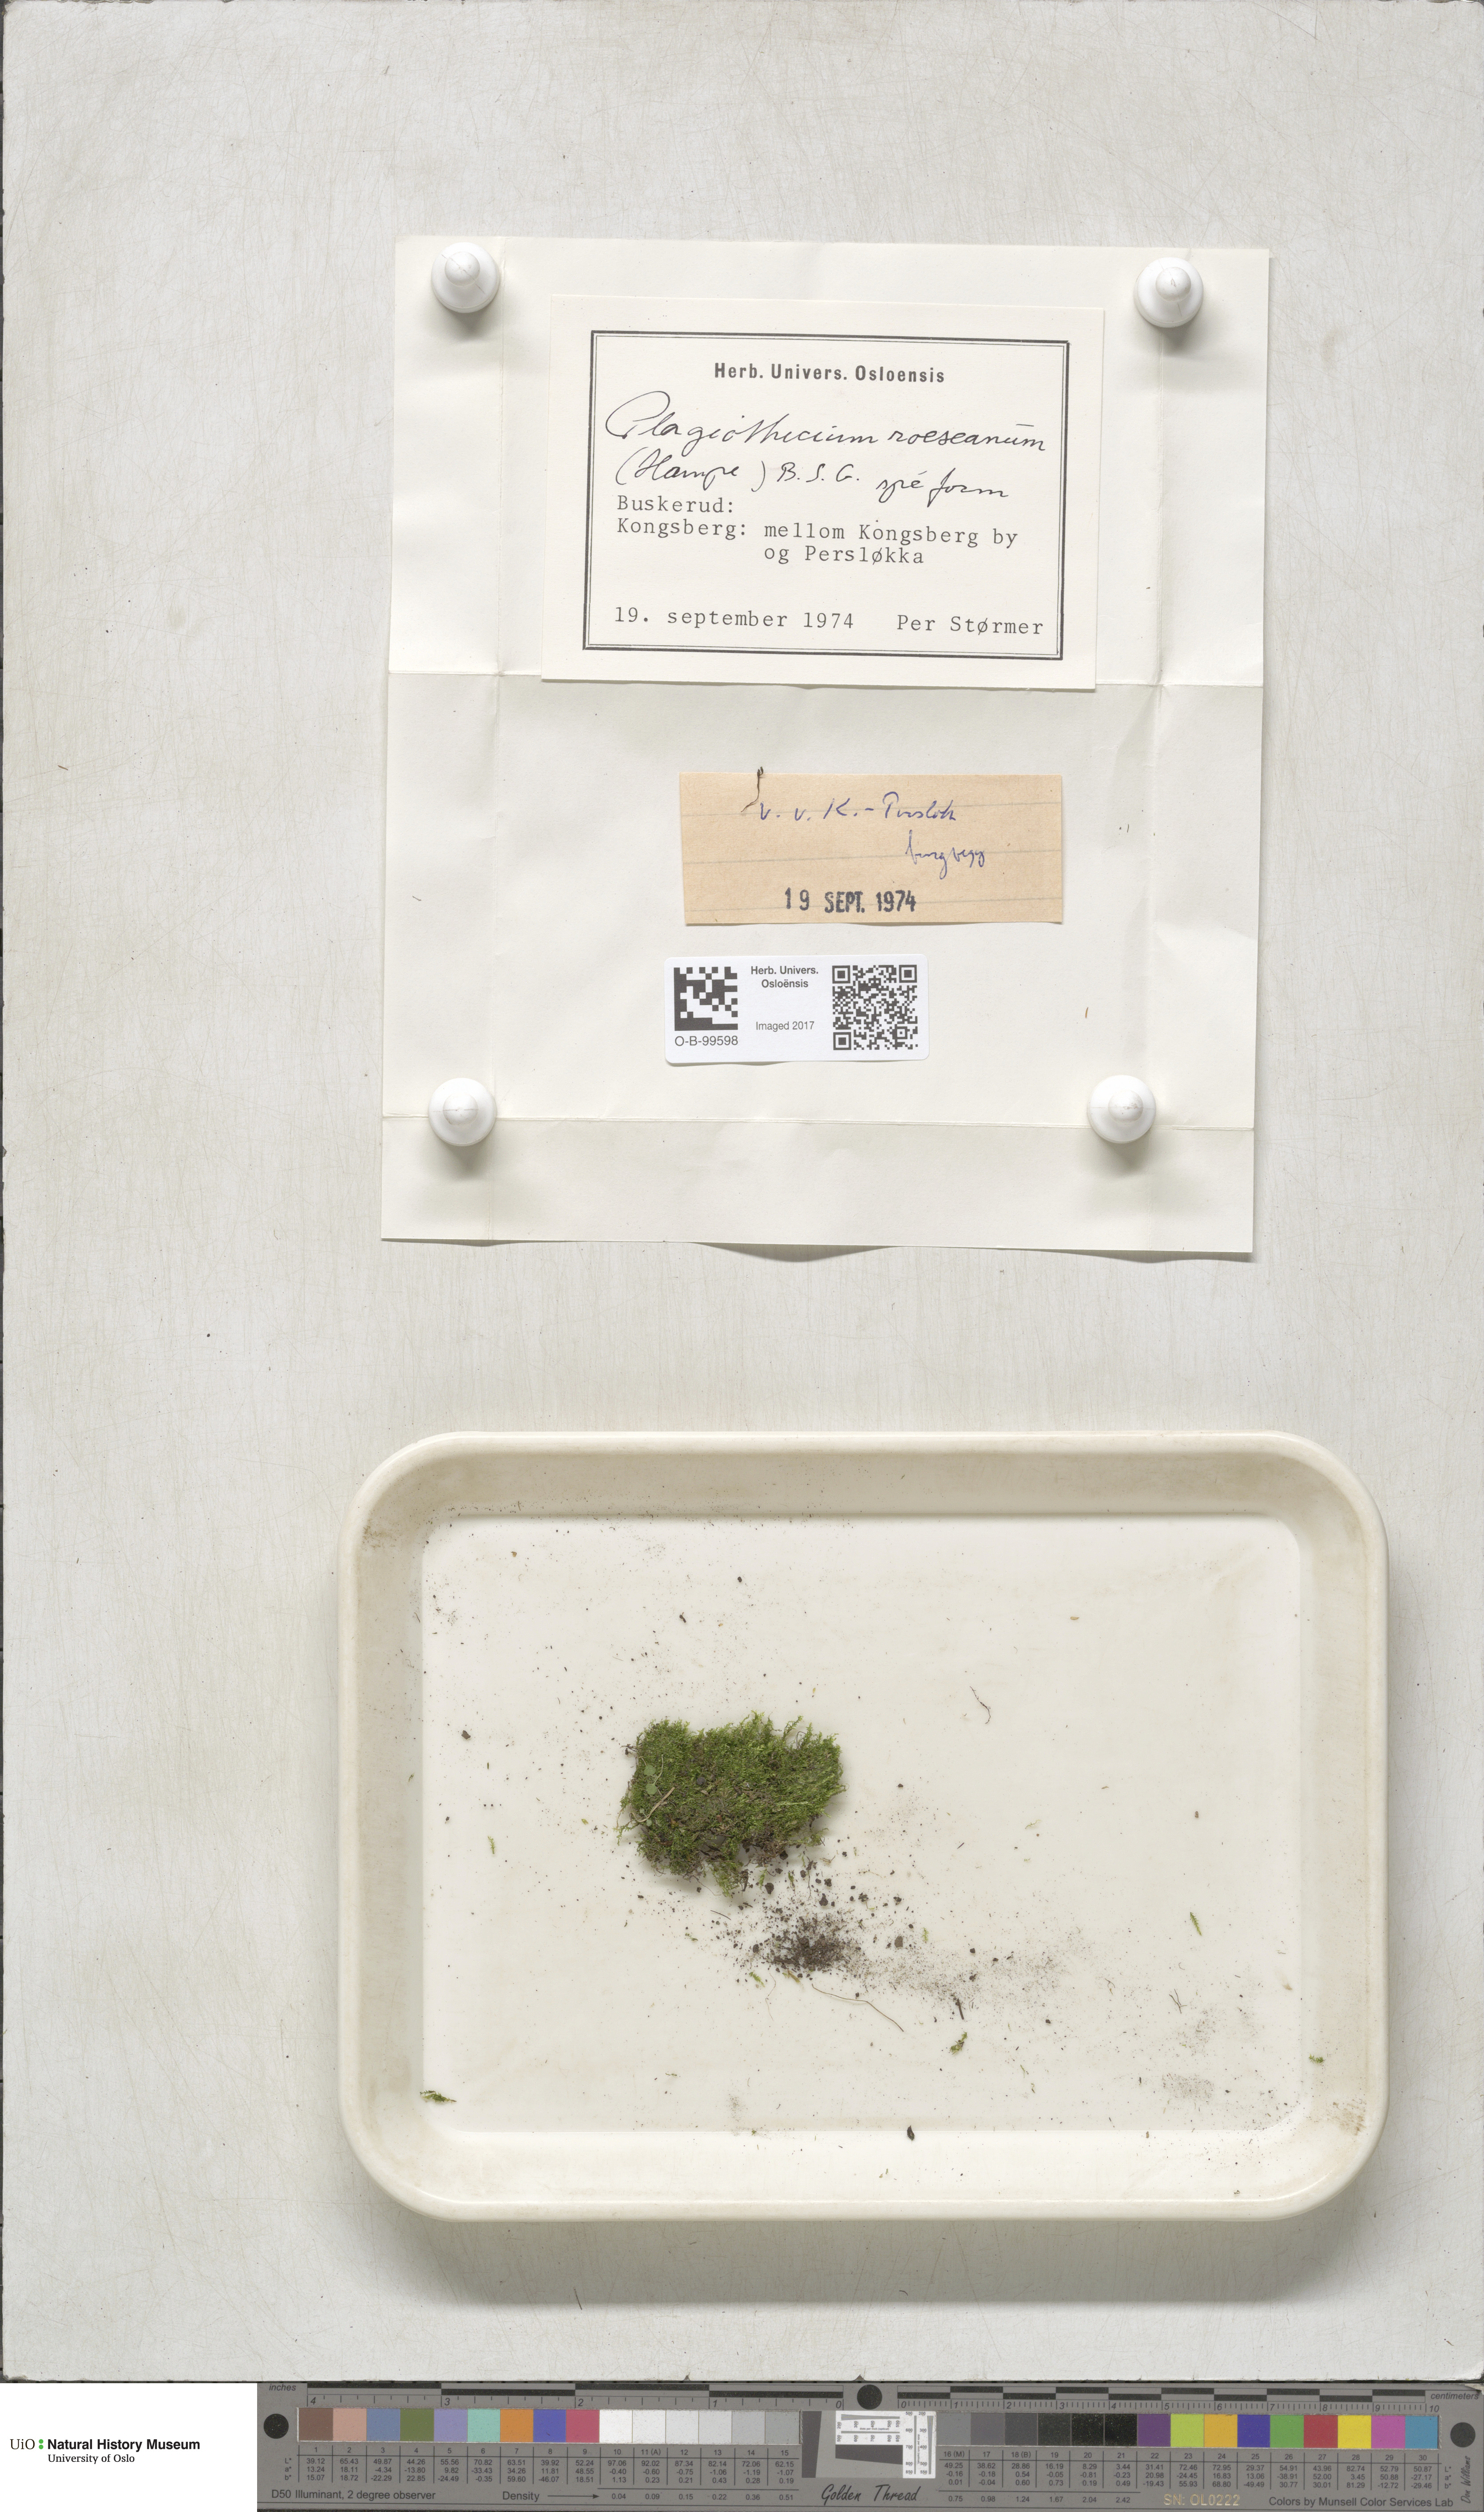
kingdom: Plantae
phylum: Bryophyta
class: Bryopsida
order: Hypnales
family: Plagiotheciaceae
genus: Plagiothecium
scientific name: Plagiothecium cavifolium
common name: Round silk moss
